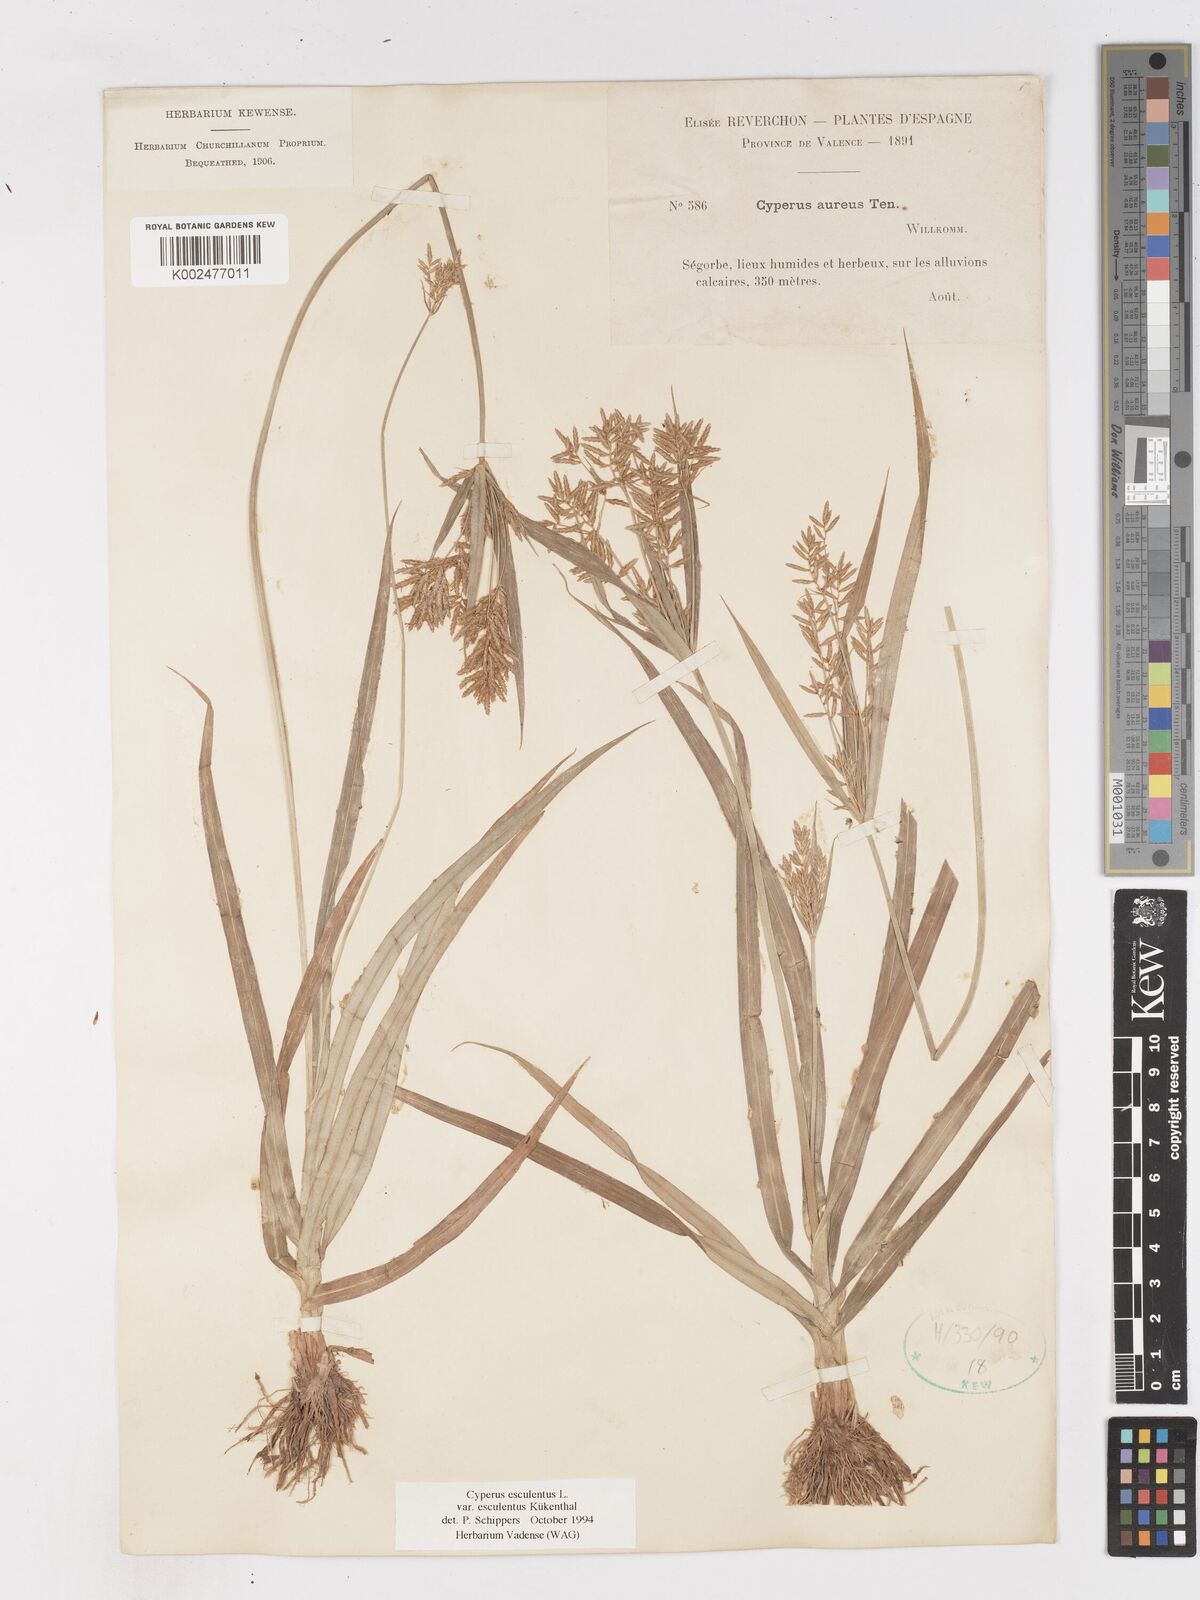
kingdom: Plantae
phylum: Tracheophyta
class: Liliopsida
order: Poales
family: Cyperaceae
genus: Cyperus
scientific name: Cyperus esculentus
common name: Yellow nutsedge
